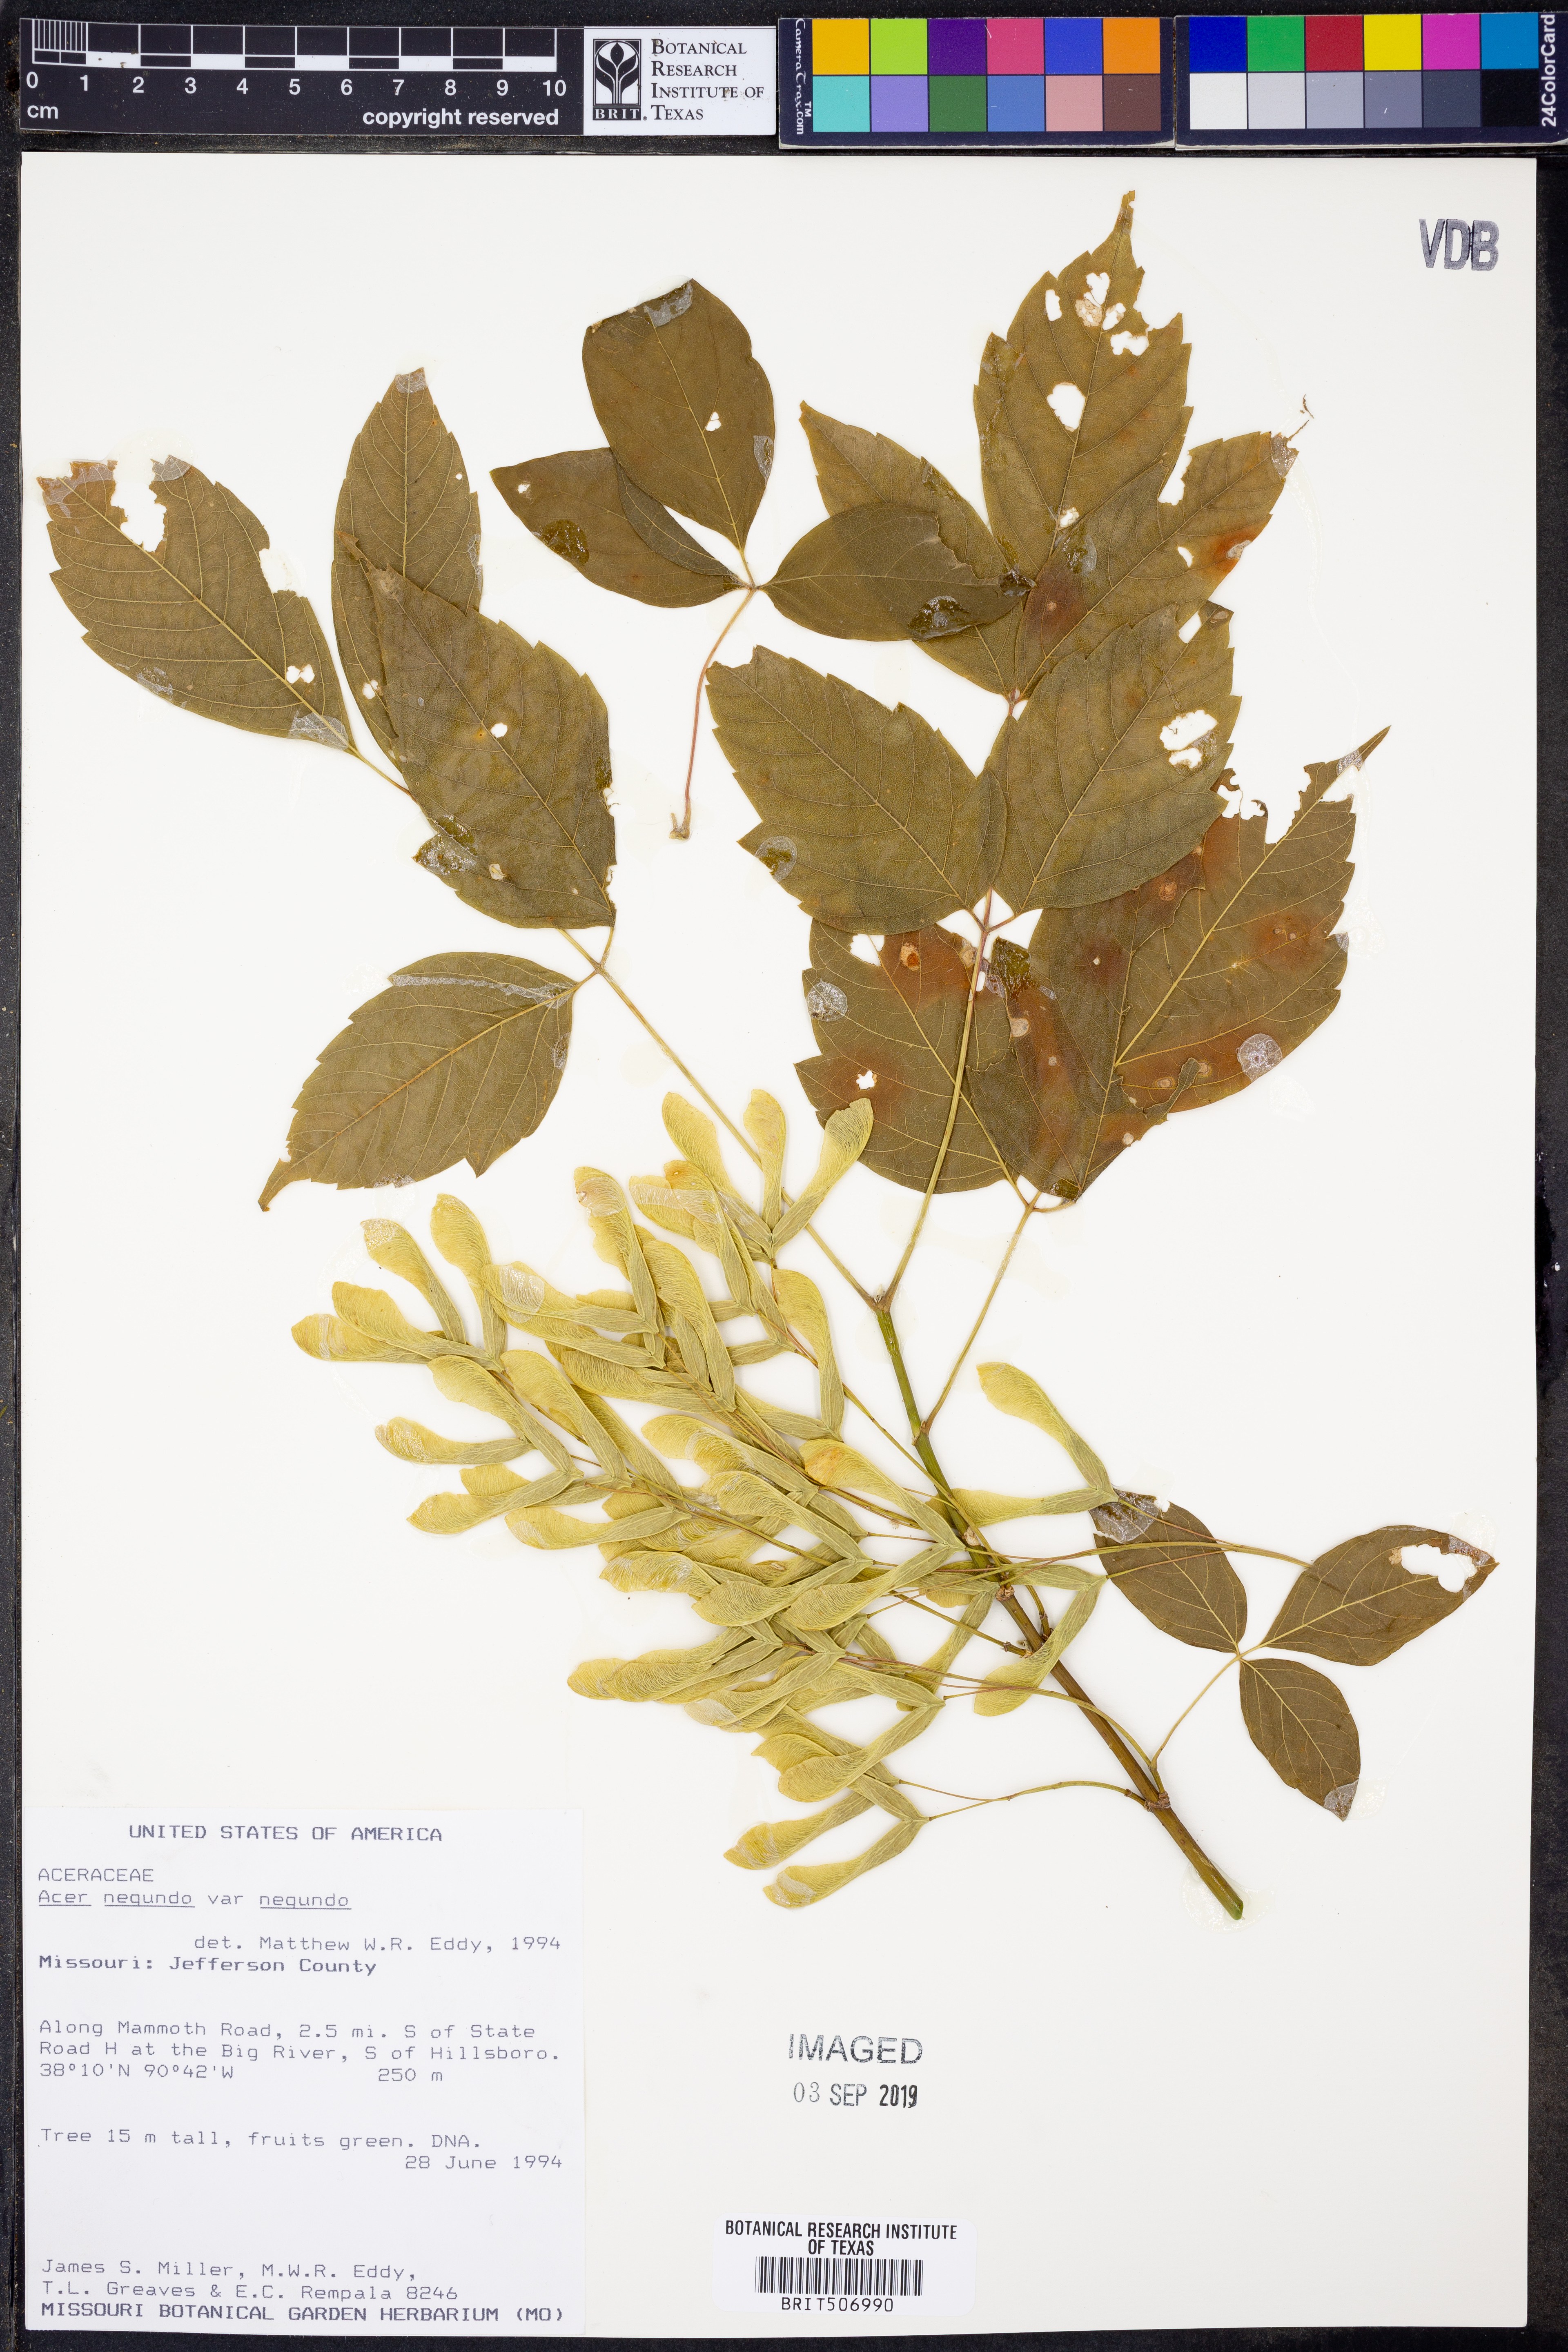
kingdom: Plantae
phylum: Tracheophyta
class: Magnoliopsida
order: Sapindales
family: Sapindaceae
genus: Acer
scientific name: Acer negundo
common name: Ashleaf maple
